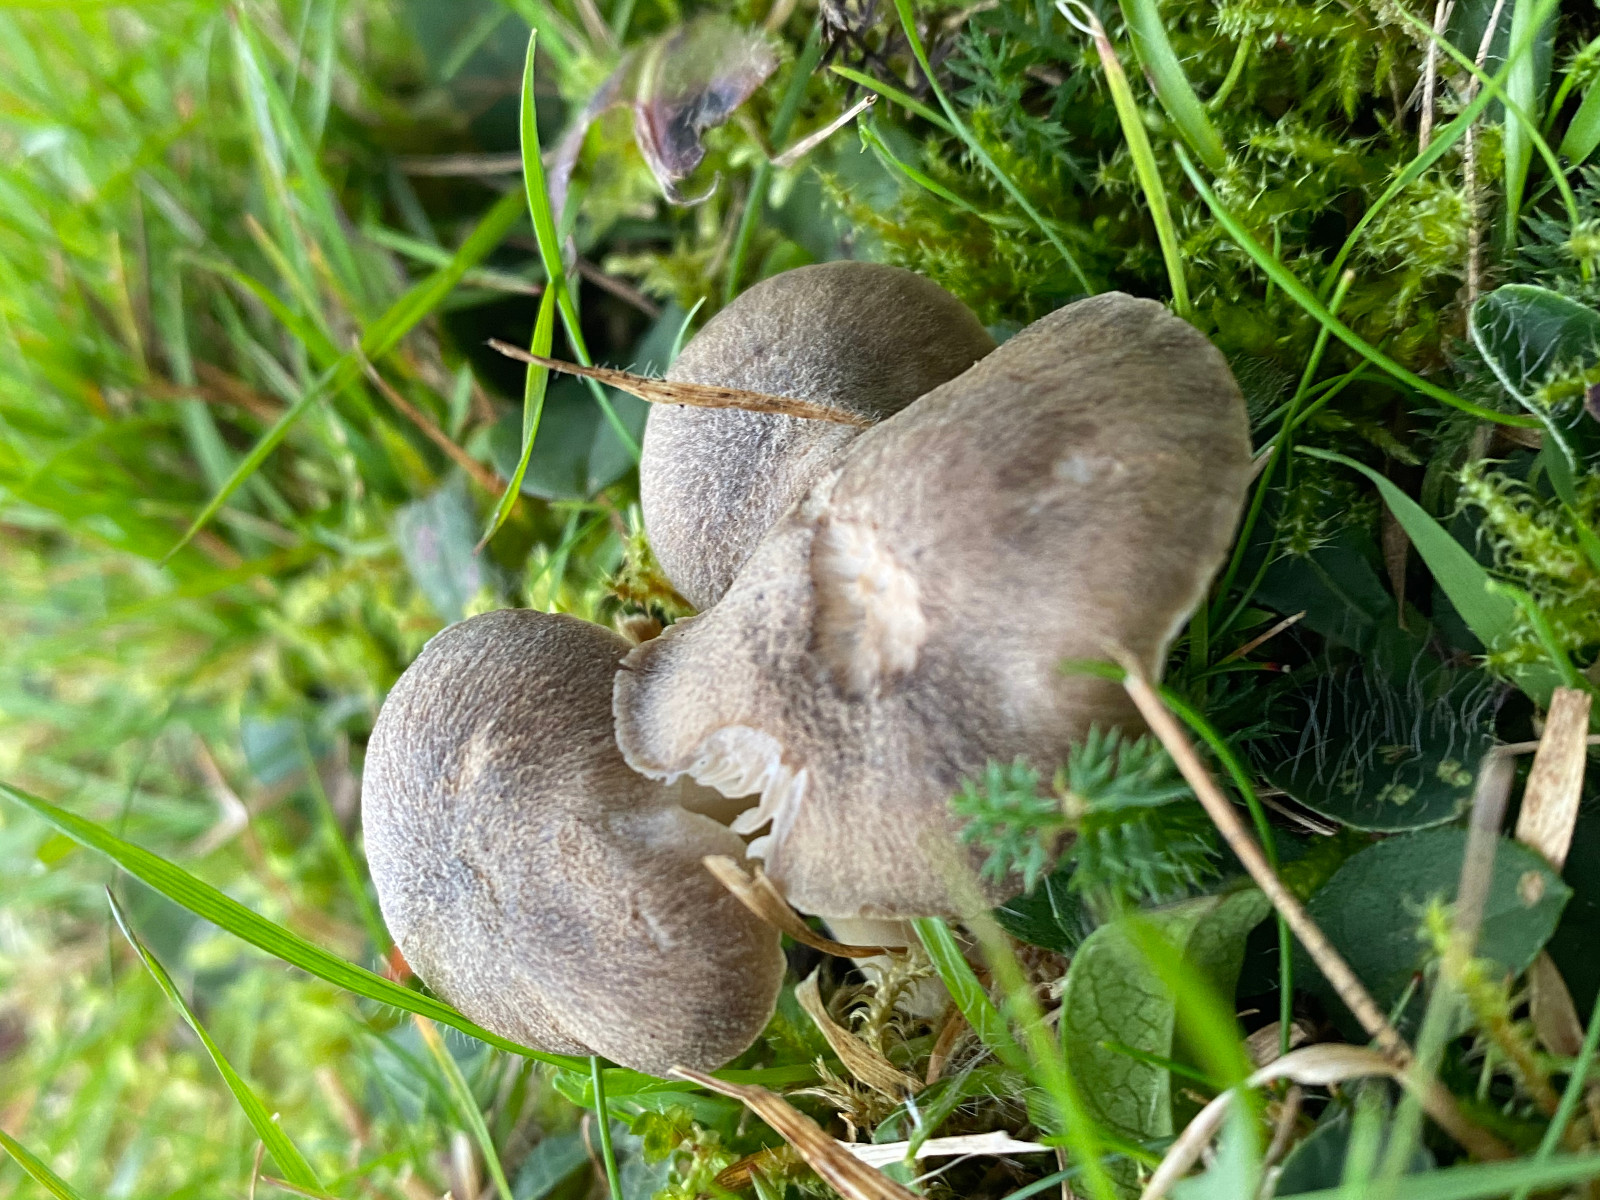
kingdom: Fungi
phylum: Basidiomycota
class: Agaricomycetes
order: Agaricales
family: Hygrophoraceae
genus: Neohygrocybe
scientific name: Neohygrocybe nitrata
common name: stinkende vokshat
